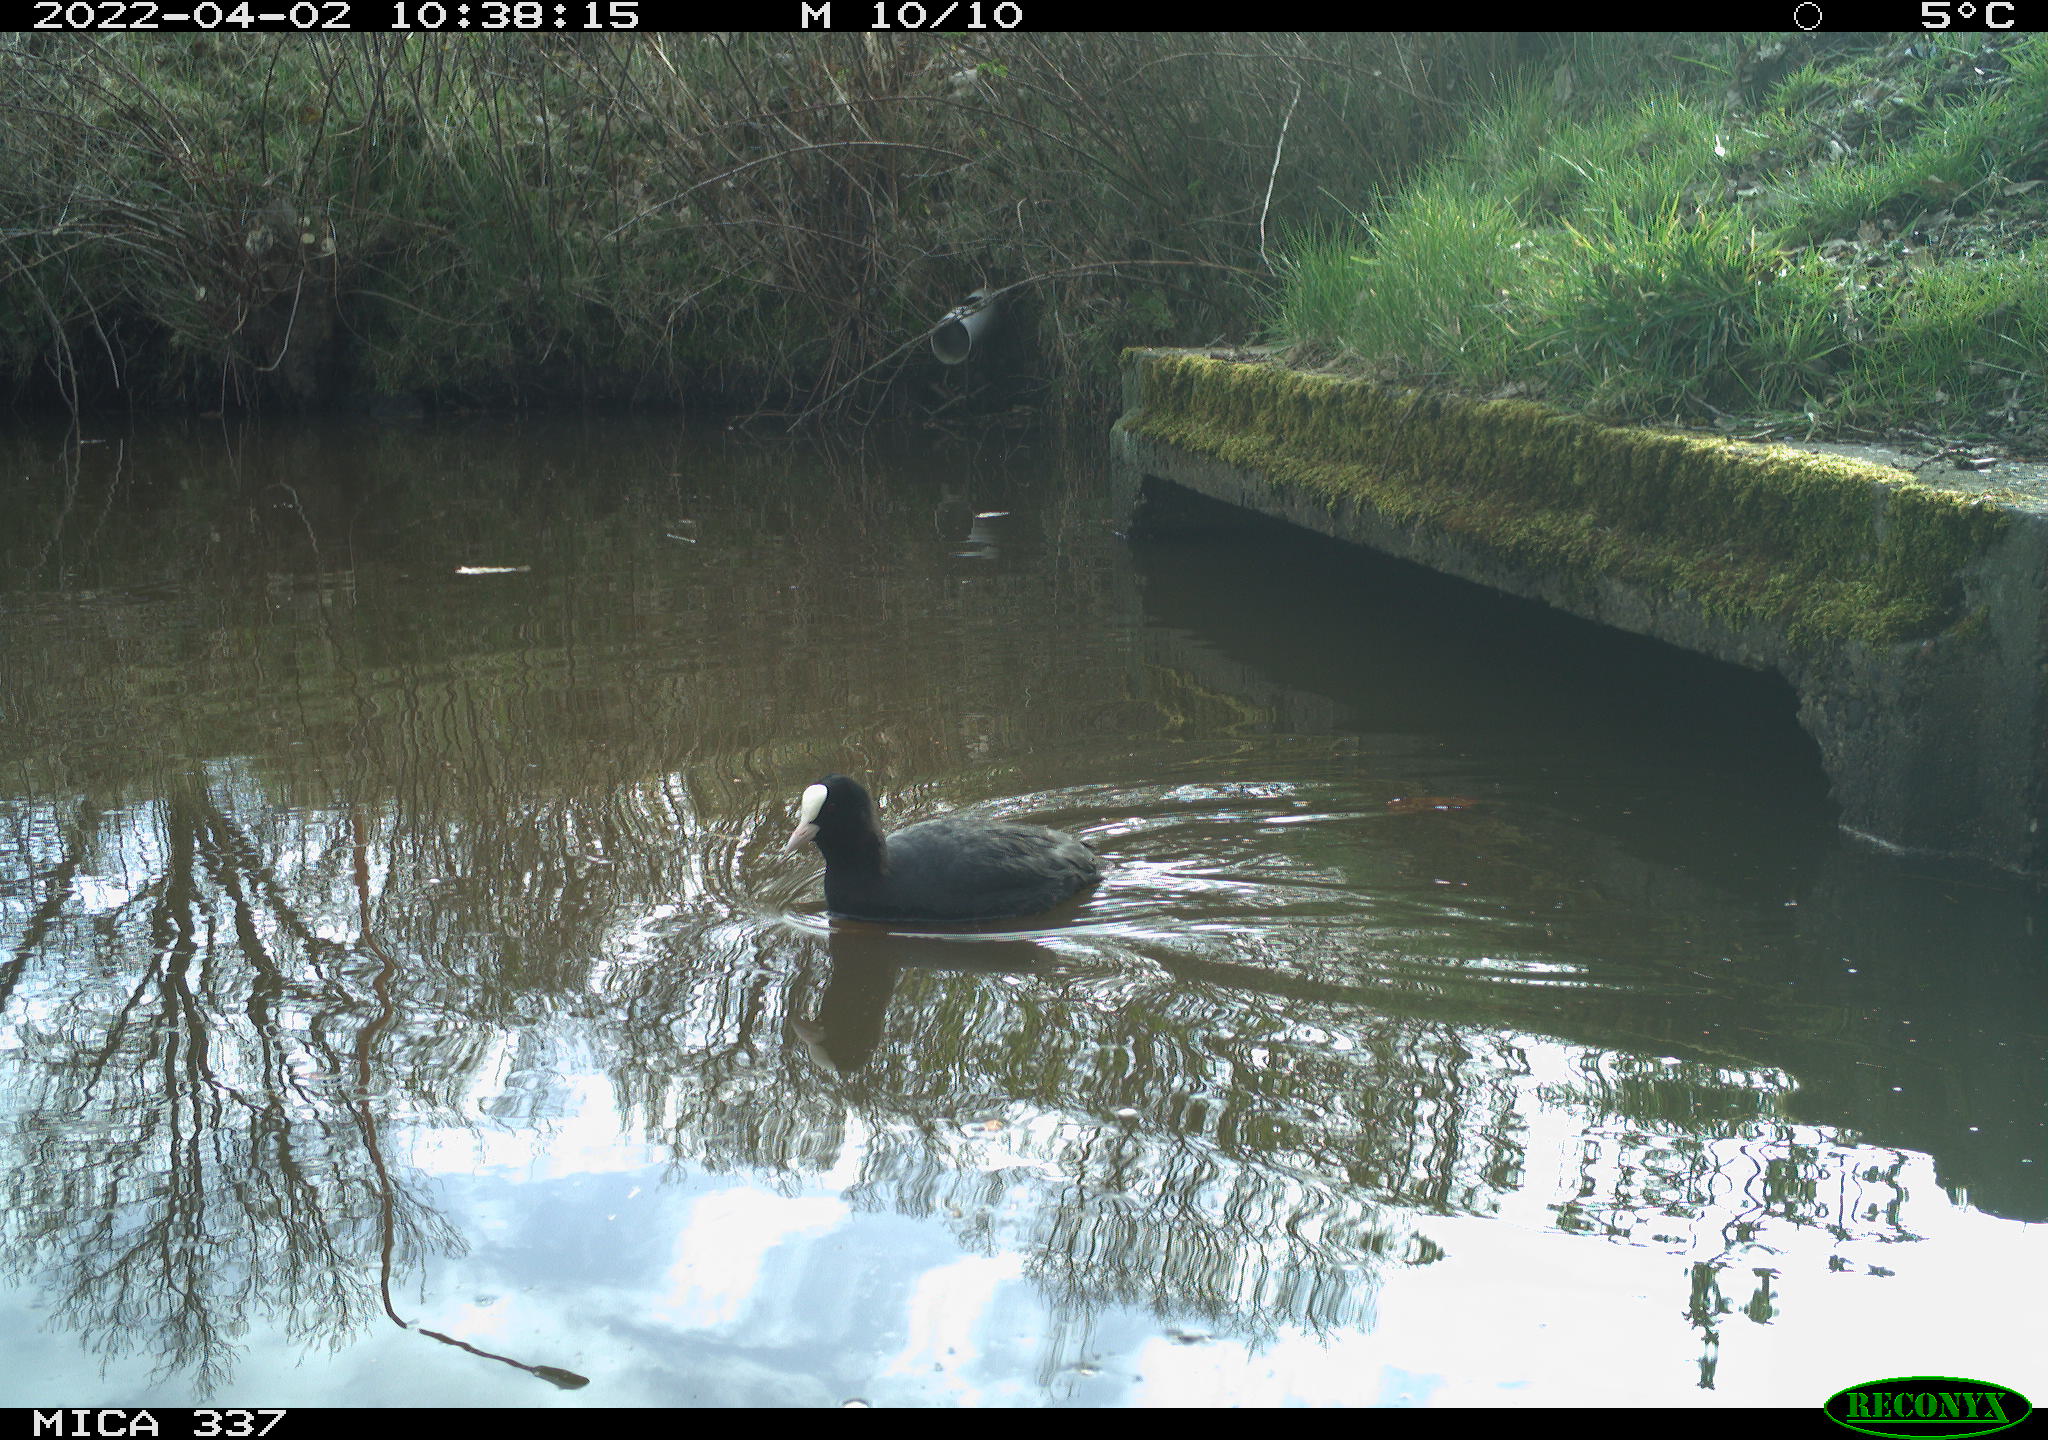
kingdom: Animalia
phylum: Chordata
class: Aves
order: Gruiformes
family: Rallidae
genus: Fulica
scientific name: Fulica atra
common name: Eurasian coot
